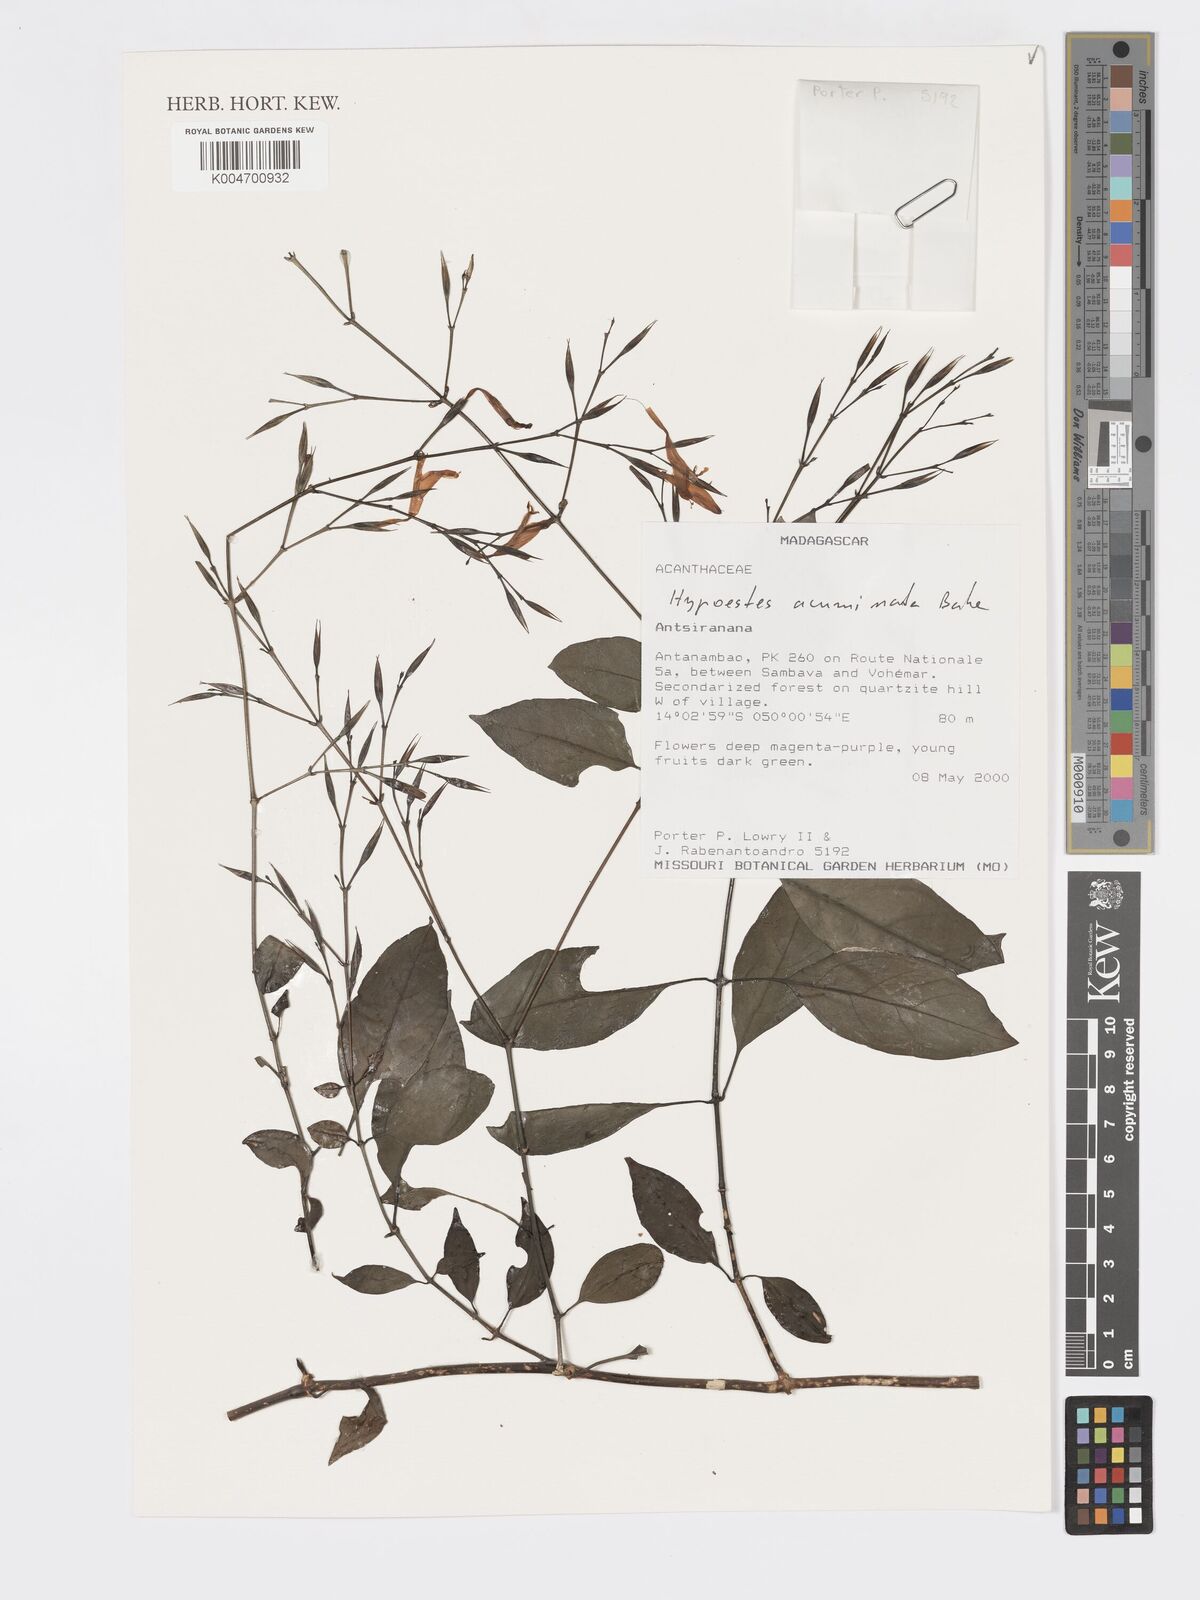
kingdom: Plantae
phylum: Tracheophyta
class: Magnoliopsida
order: Lamiales
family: Acanthaceae
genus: Hypoestes
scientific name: Hypoestes
